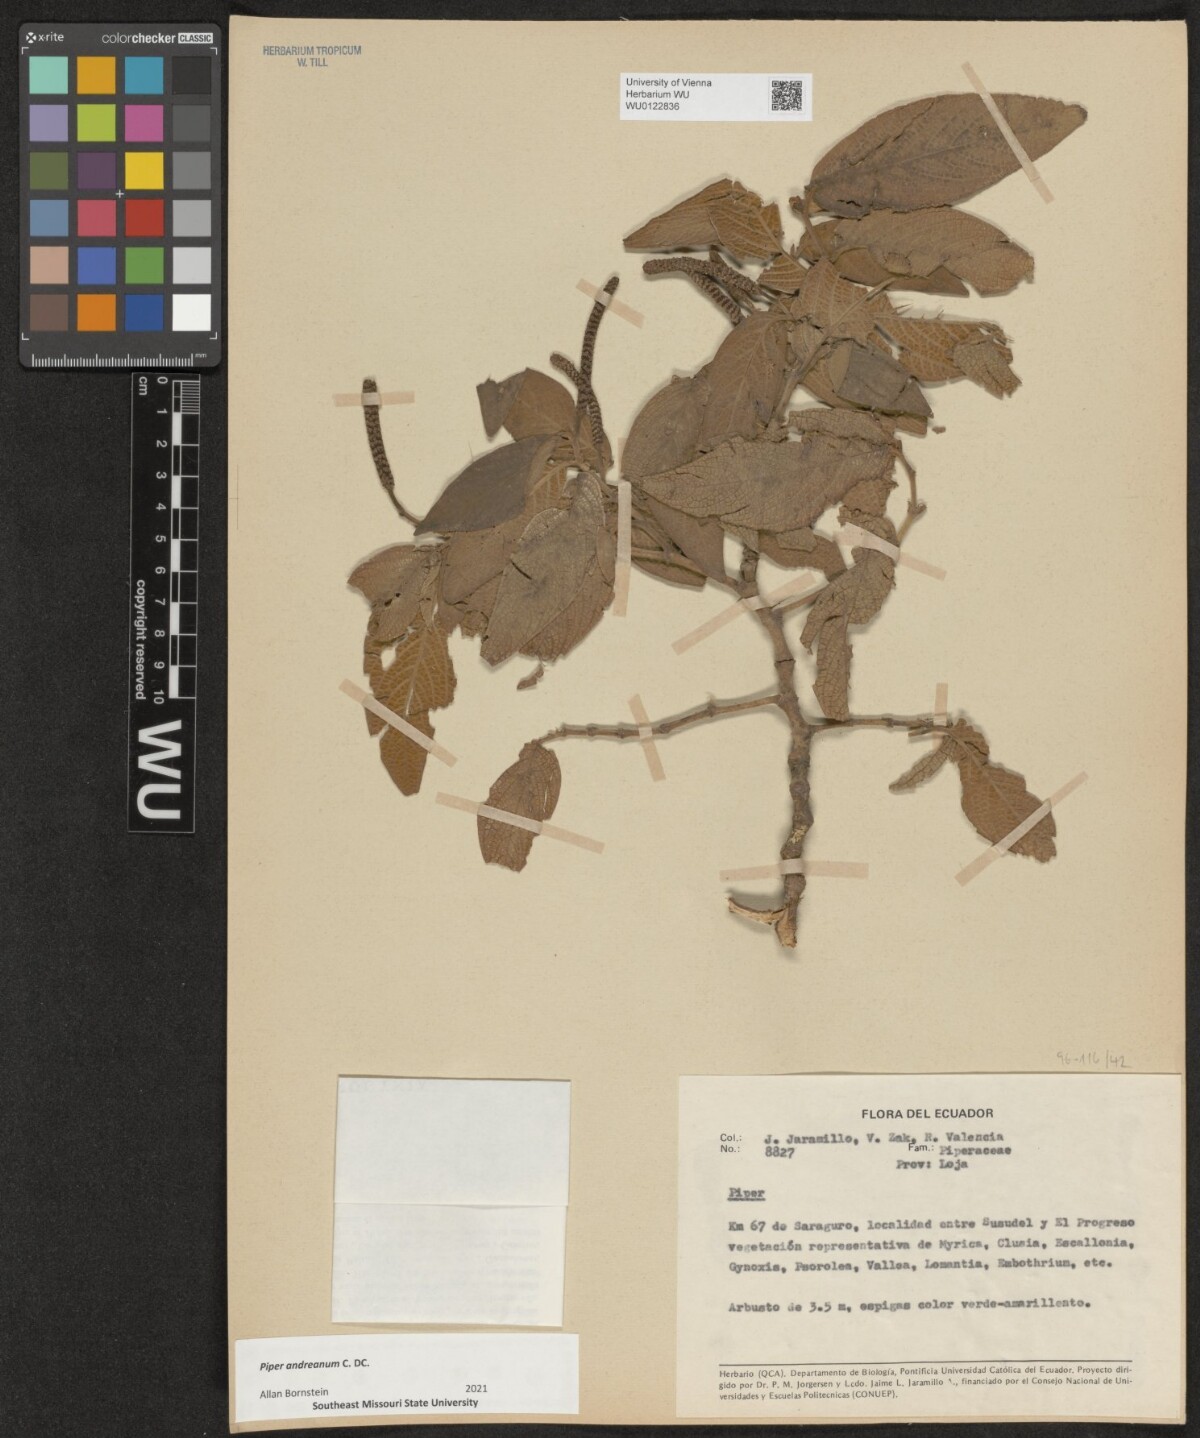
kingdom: Plantae
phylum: Tracheophyta
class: Magnoliopsida
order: Piperales
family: Piperaceae
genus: Piper
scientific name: Piper andreanum
